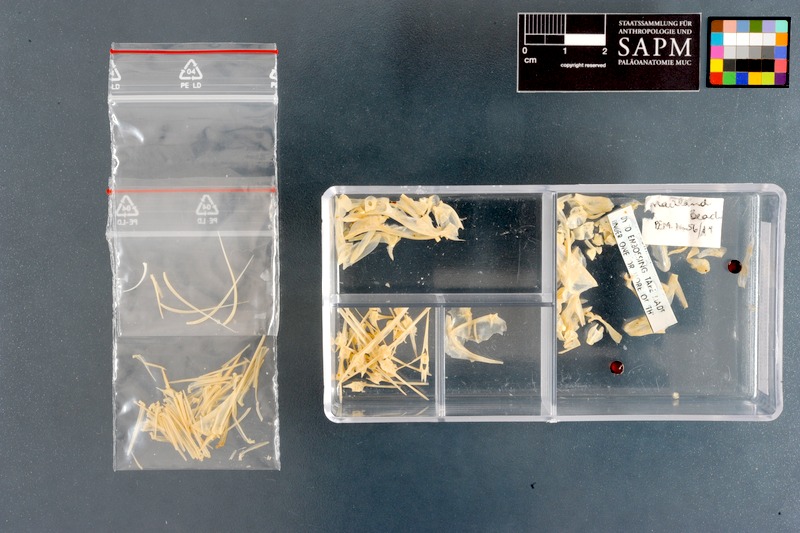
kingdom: Animalia
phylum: Chordata
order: Perciformes
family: Oplegnathidae
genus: Oplegnathus
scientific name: Oplegnathus conwayi
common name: Cape knifejaw
